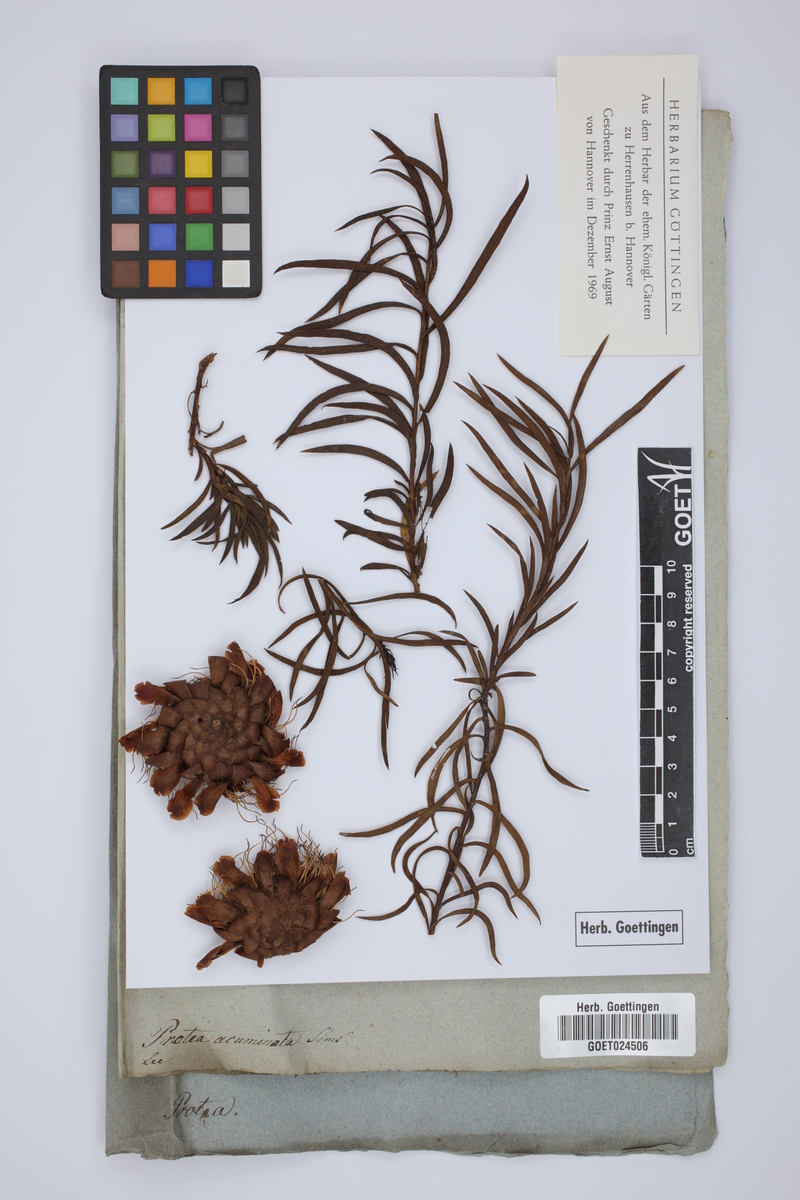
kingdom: Plantae
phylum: Tracheophyta
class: Magnoliopsida
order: Proteales
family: Proteaceae
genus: Protea
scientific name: Protea acuminata
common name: Black-rim sugarbush
